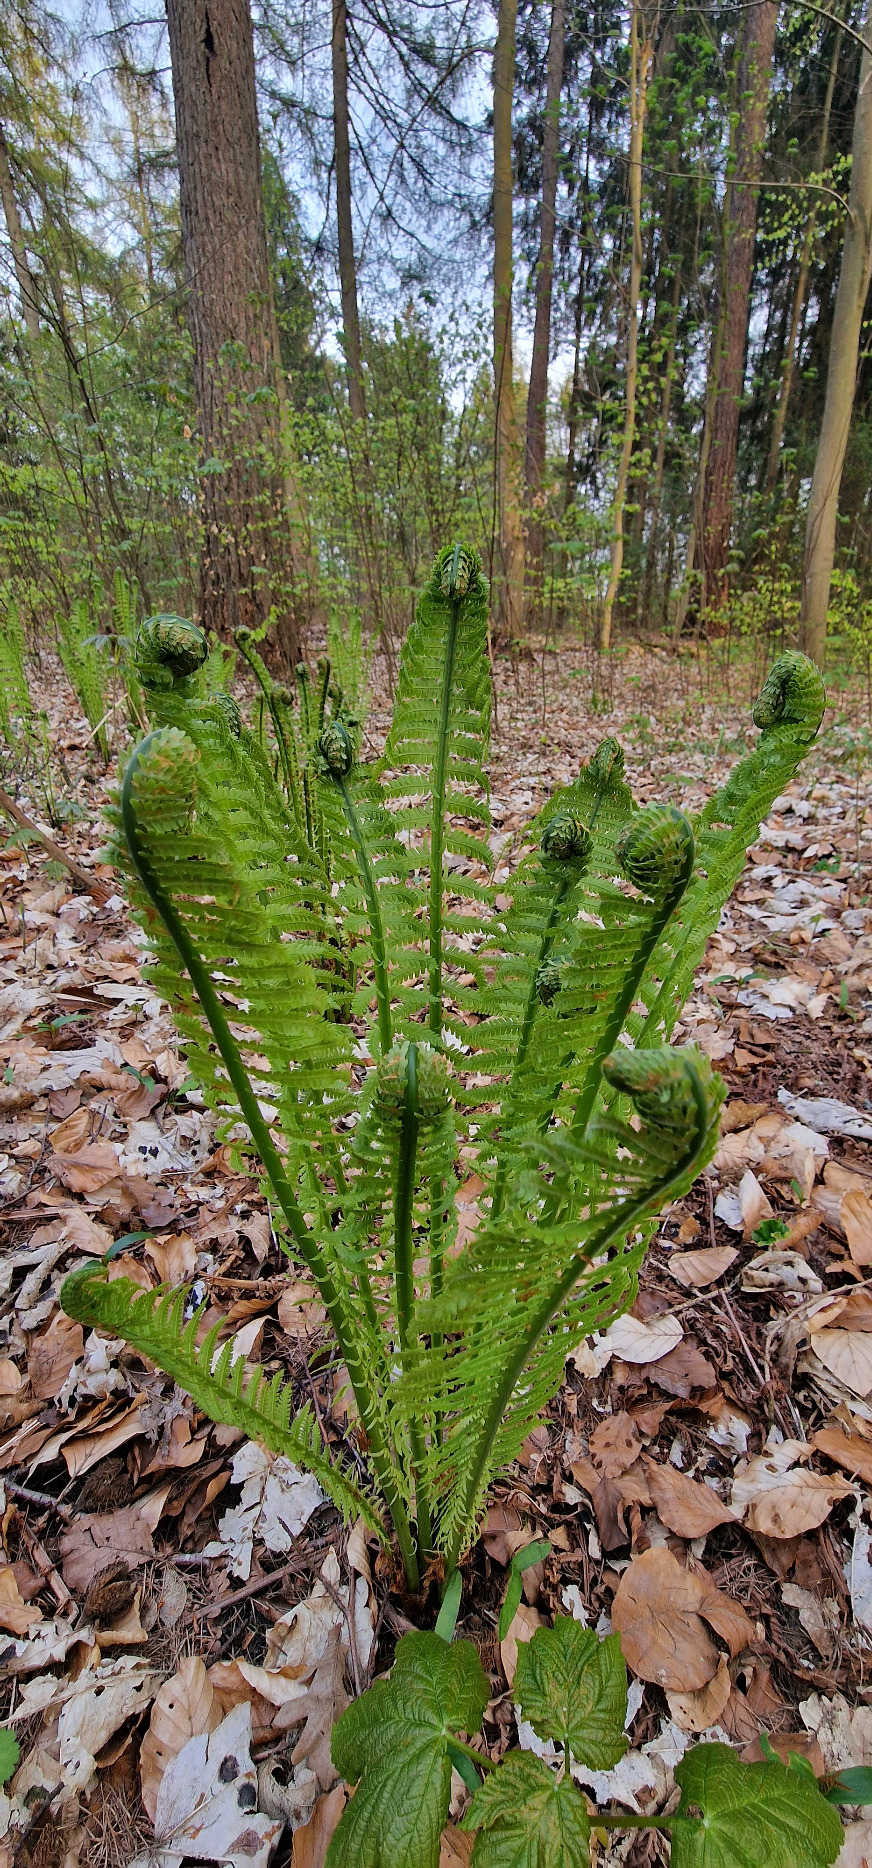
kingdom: Plantae
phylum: Tracheophyta
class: Polypodiopsida
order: Polypodiales
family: Onocleaceae
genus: Matteuccia
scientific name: Matteuccia struthiopteris
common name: Strudsvinge
